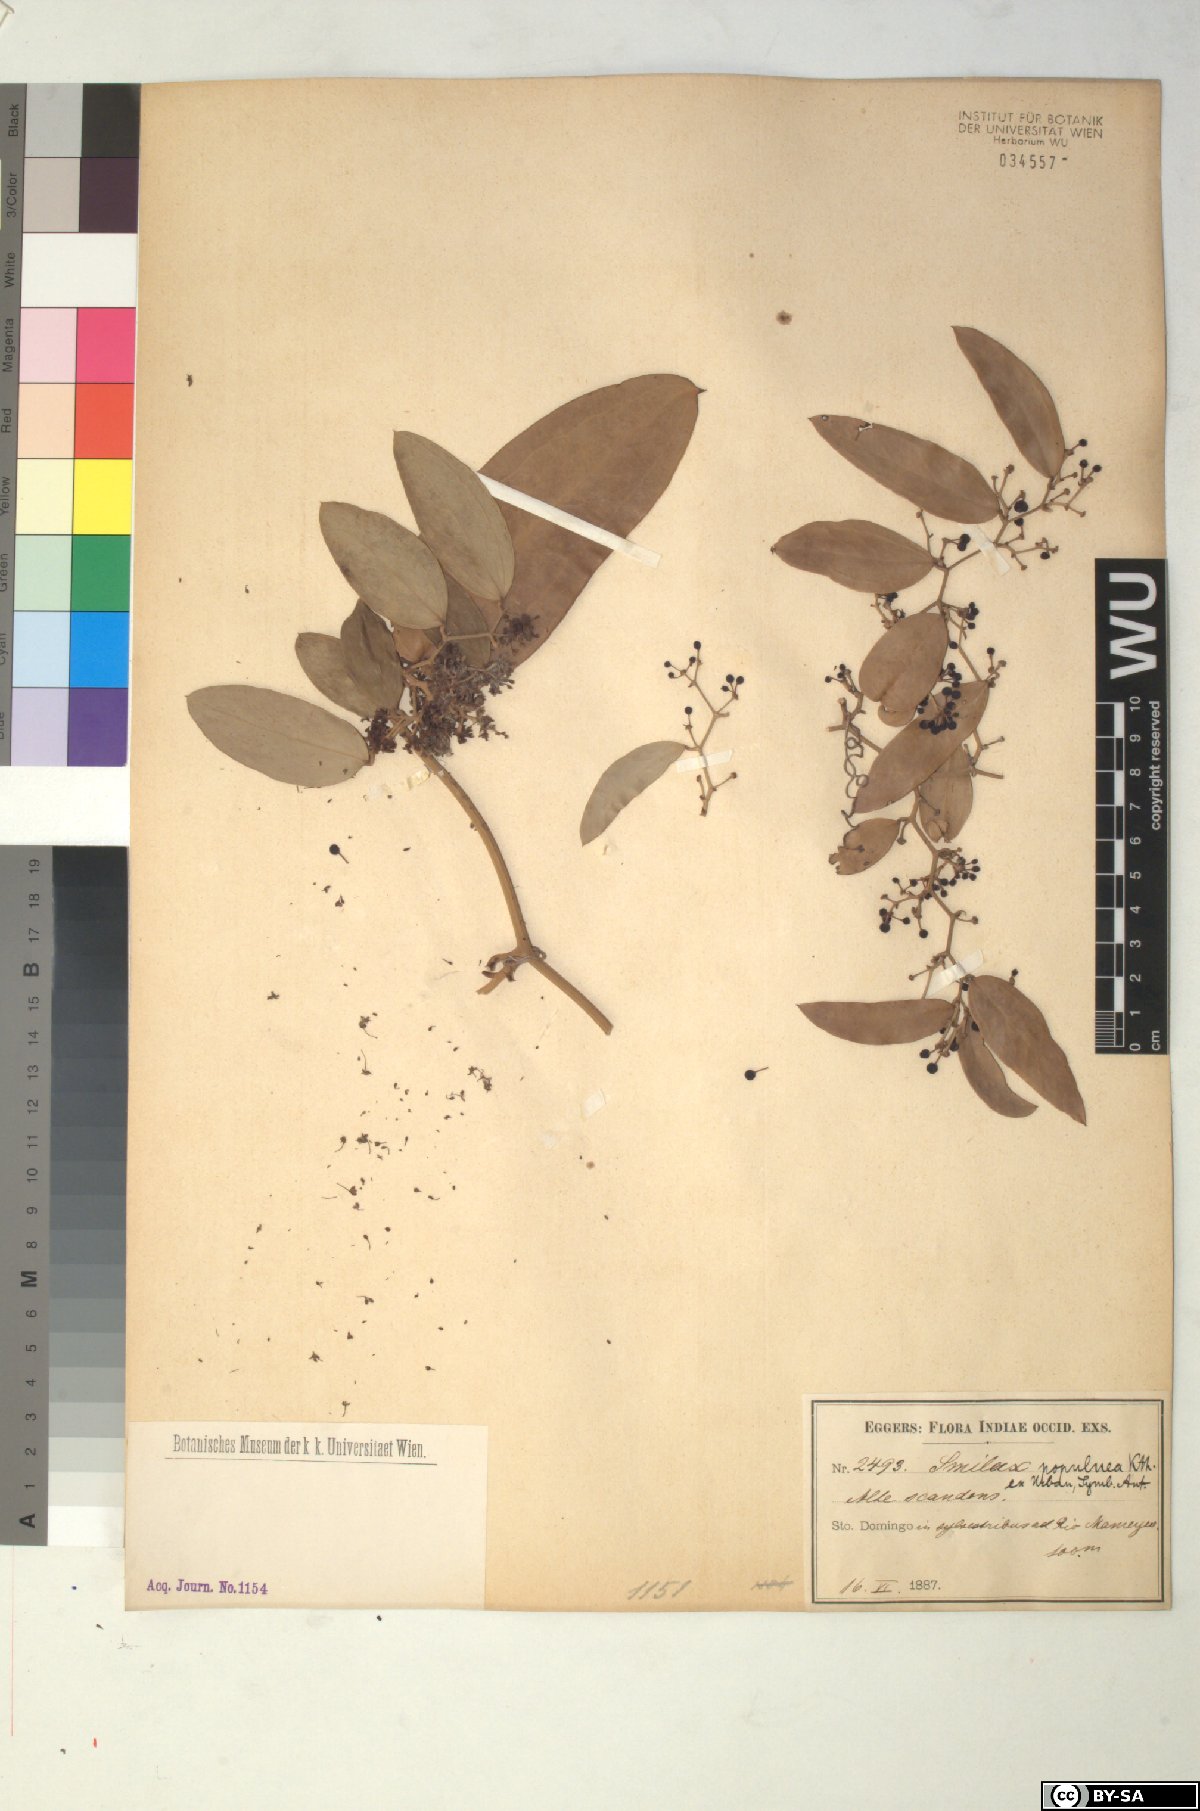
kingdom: Plantae
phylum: Tracheophyta
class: Liliopsida
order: Liliales
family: Smilacaceae
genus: Smilax
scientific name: Smilax populnea
